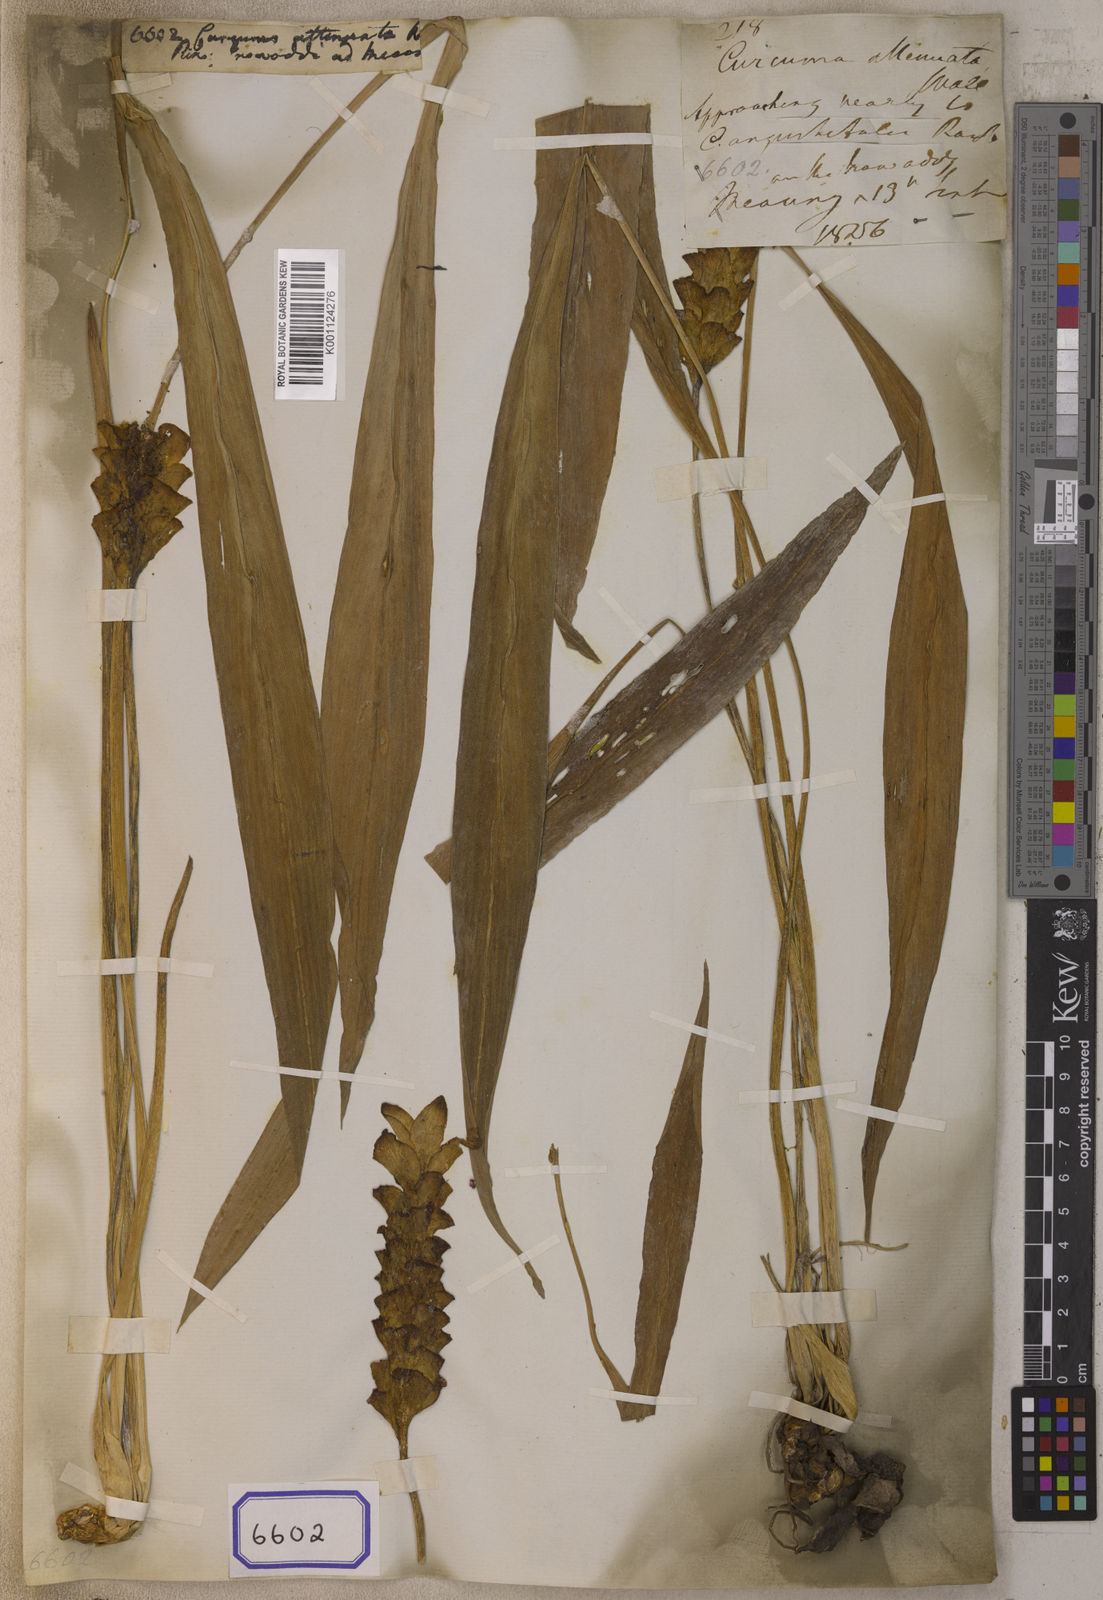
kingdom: Plantae
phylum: Tracheophyta
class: Liliopsida
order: Zingiberales
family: Zingiberaceae
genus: Curcuma
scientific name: Curcuma
